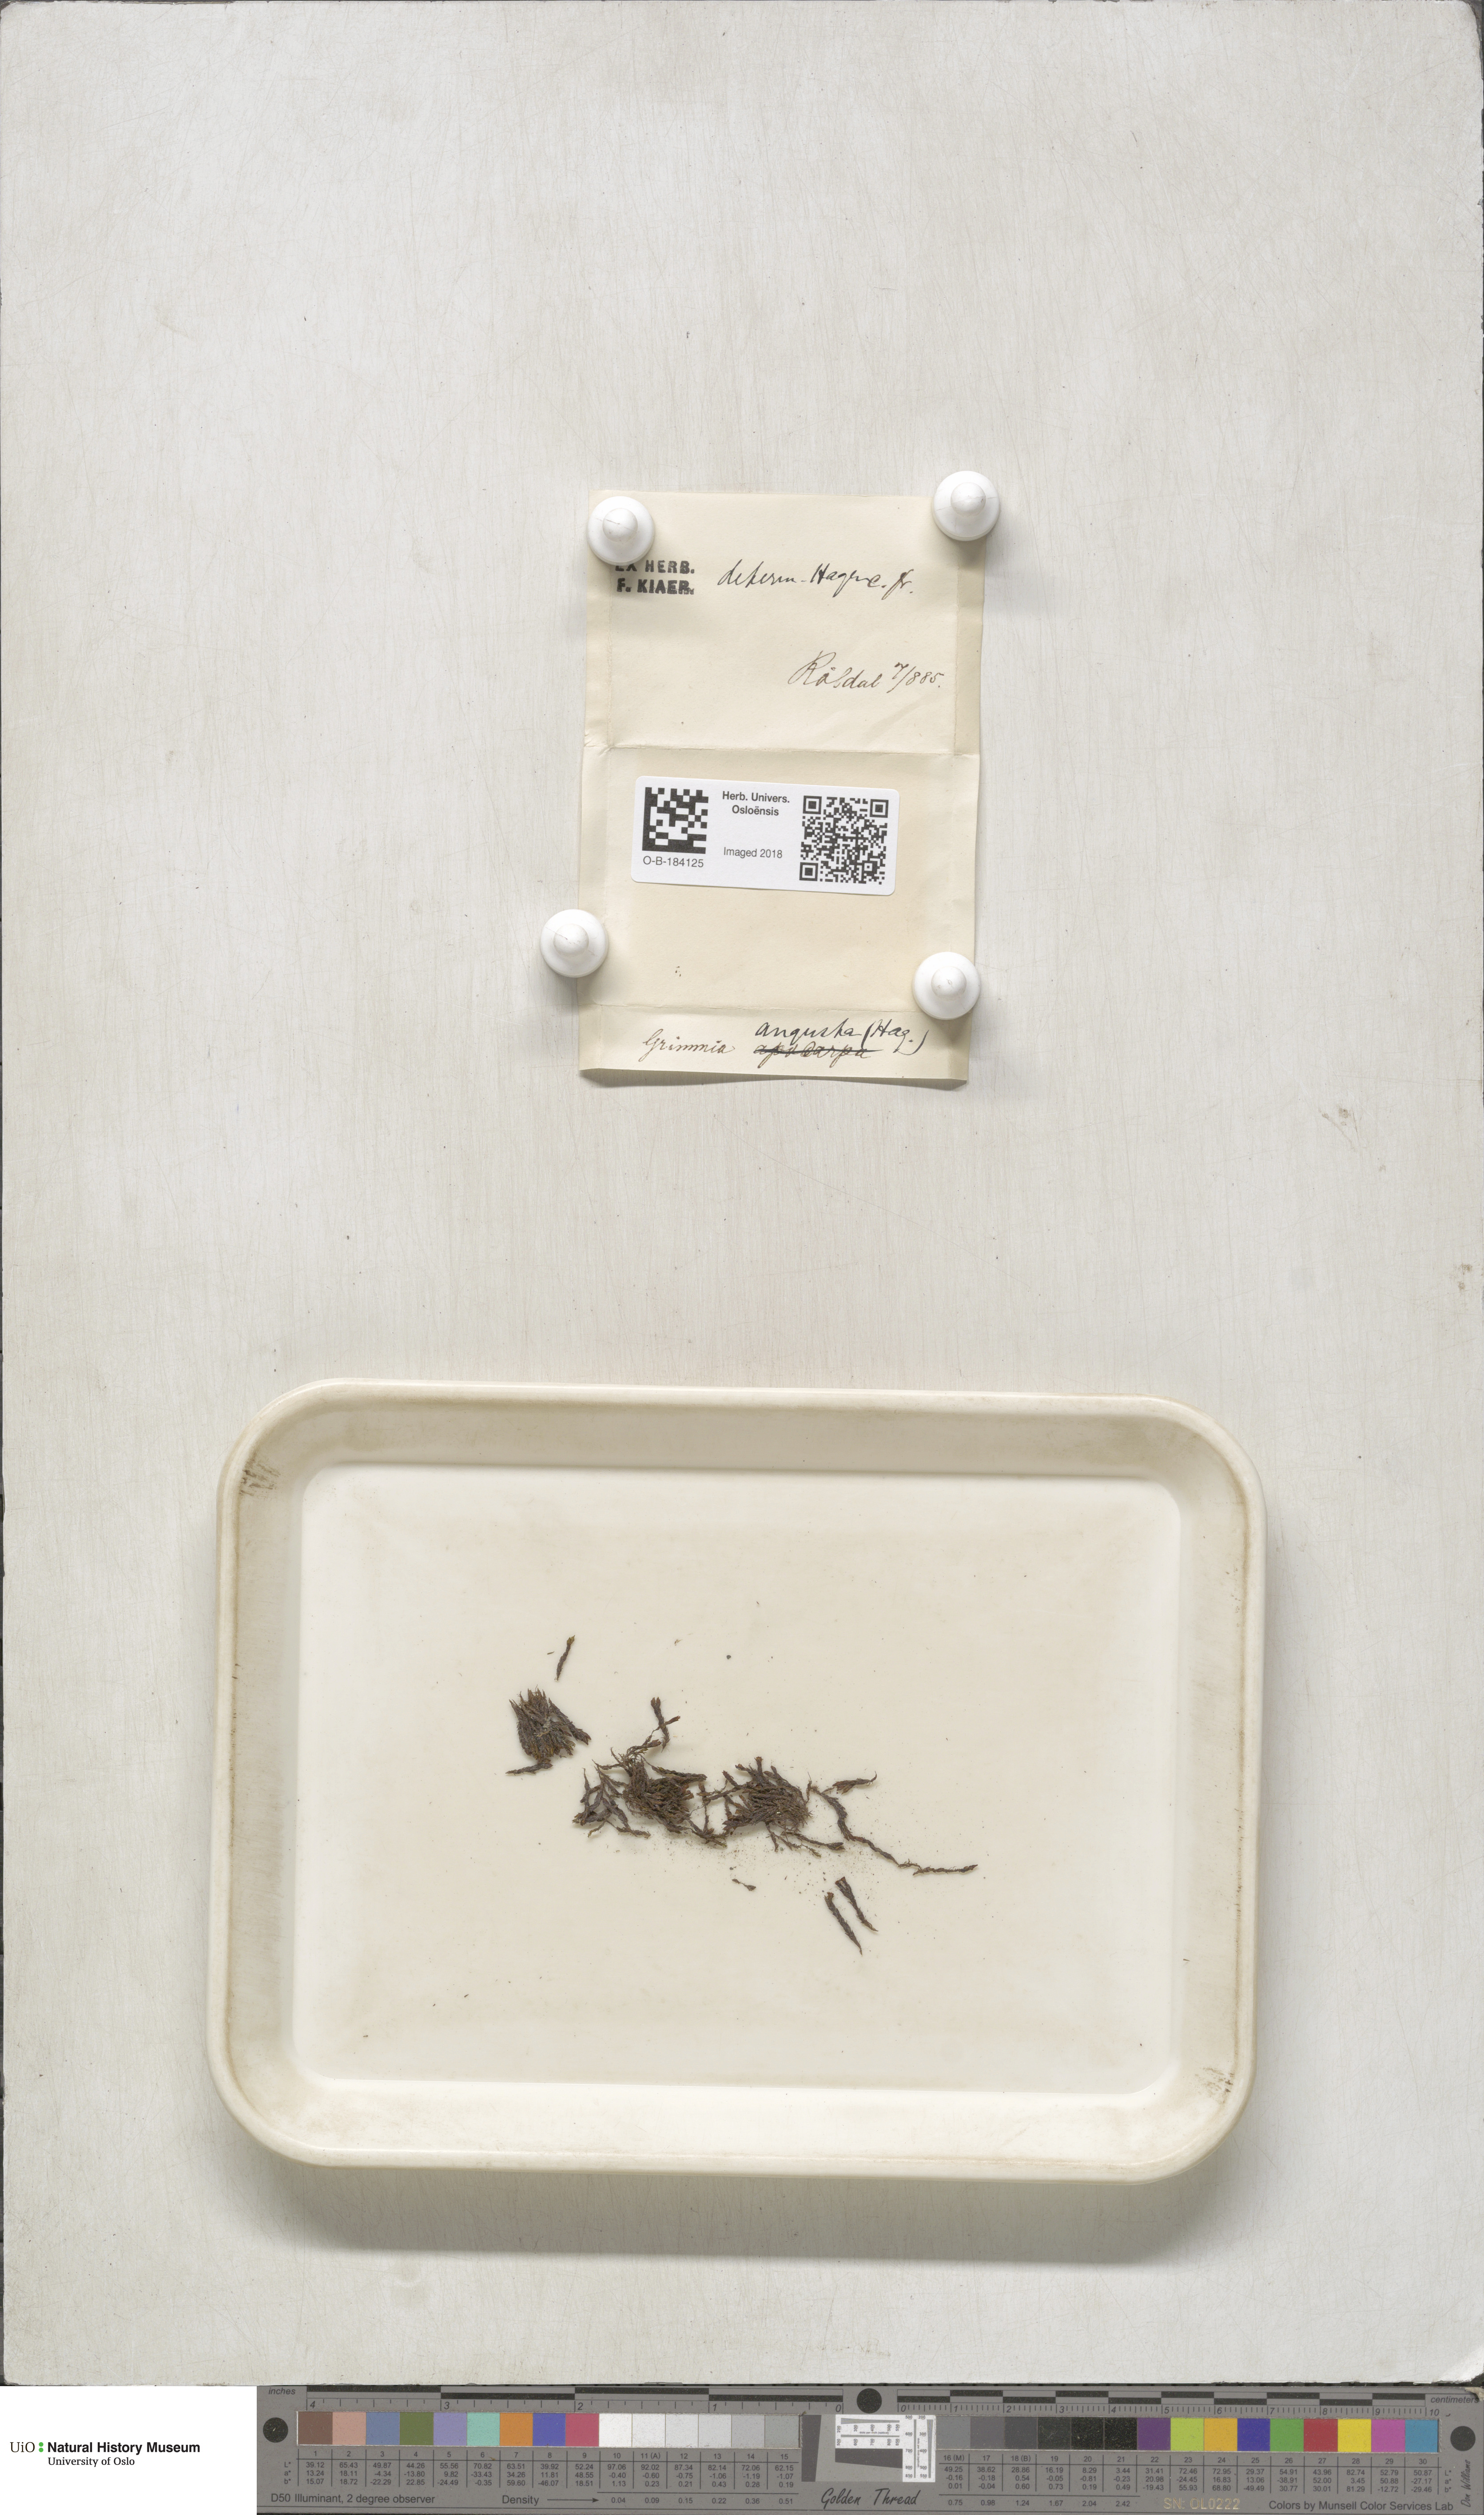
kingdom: Plantae
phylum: Bryophyta
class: Bryopsida
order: Grimmiales
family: Grimmiaceae
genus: Schistidium
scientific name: Schistidium agassizii
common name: Agassiz's bloom moss
